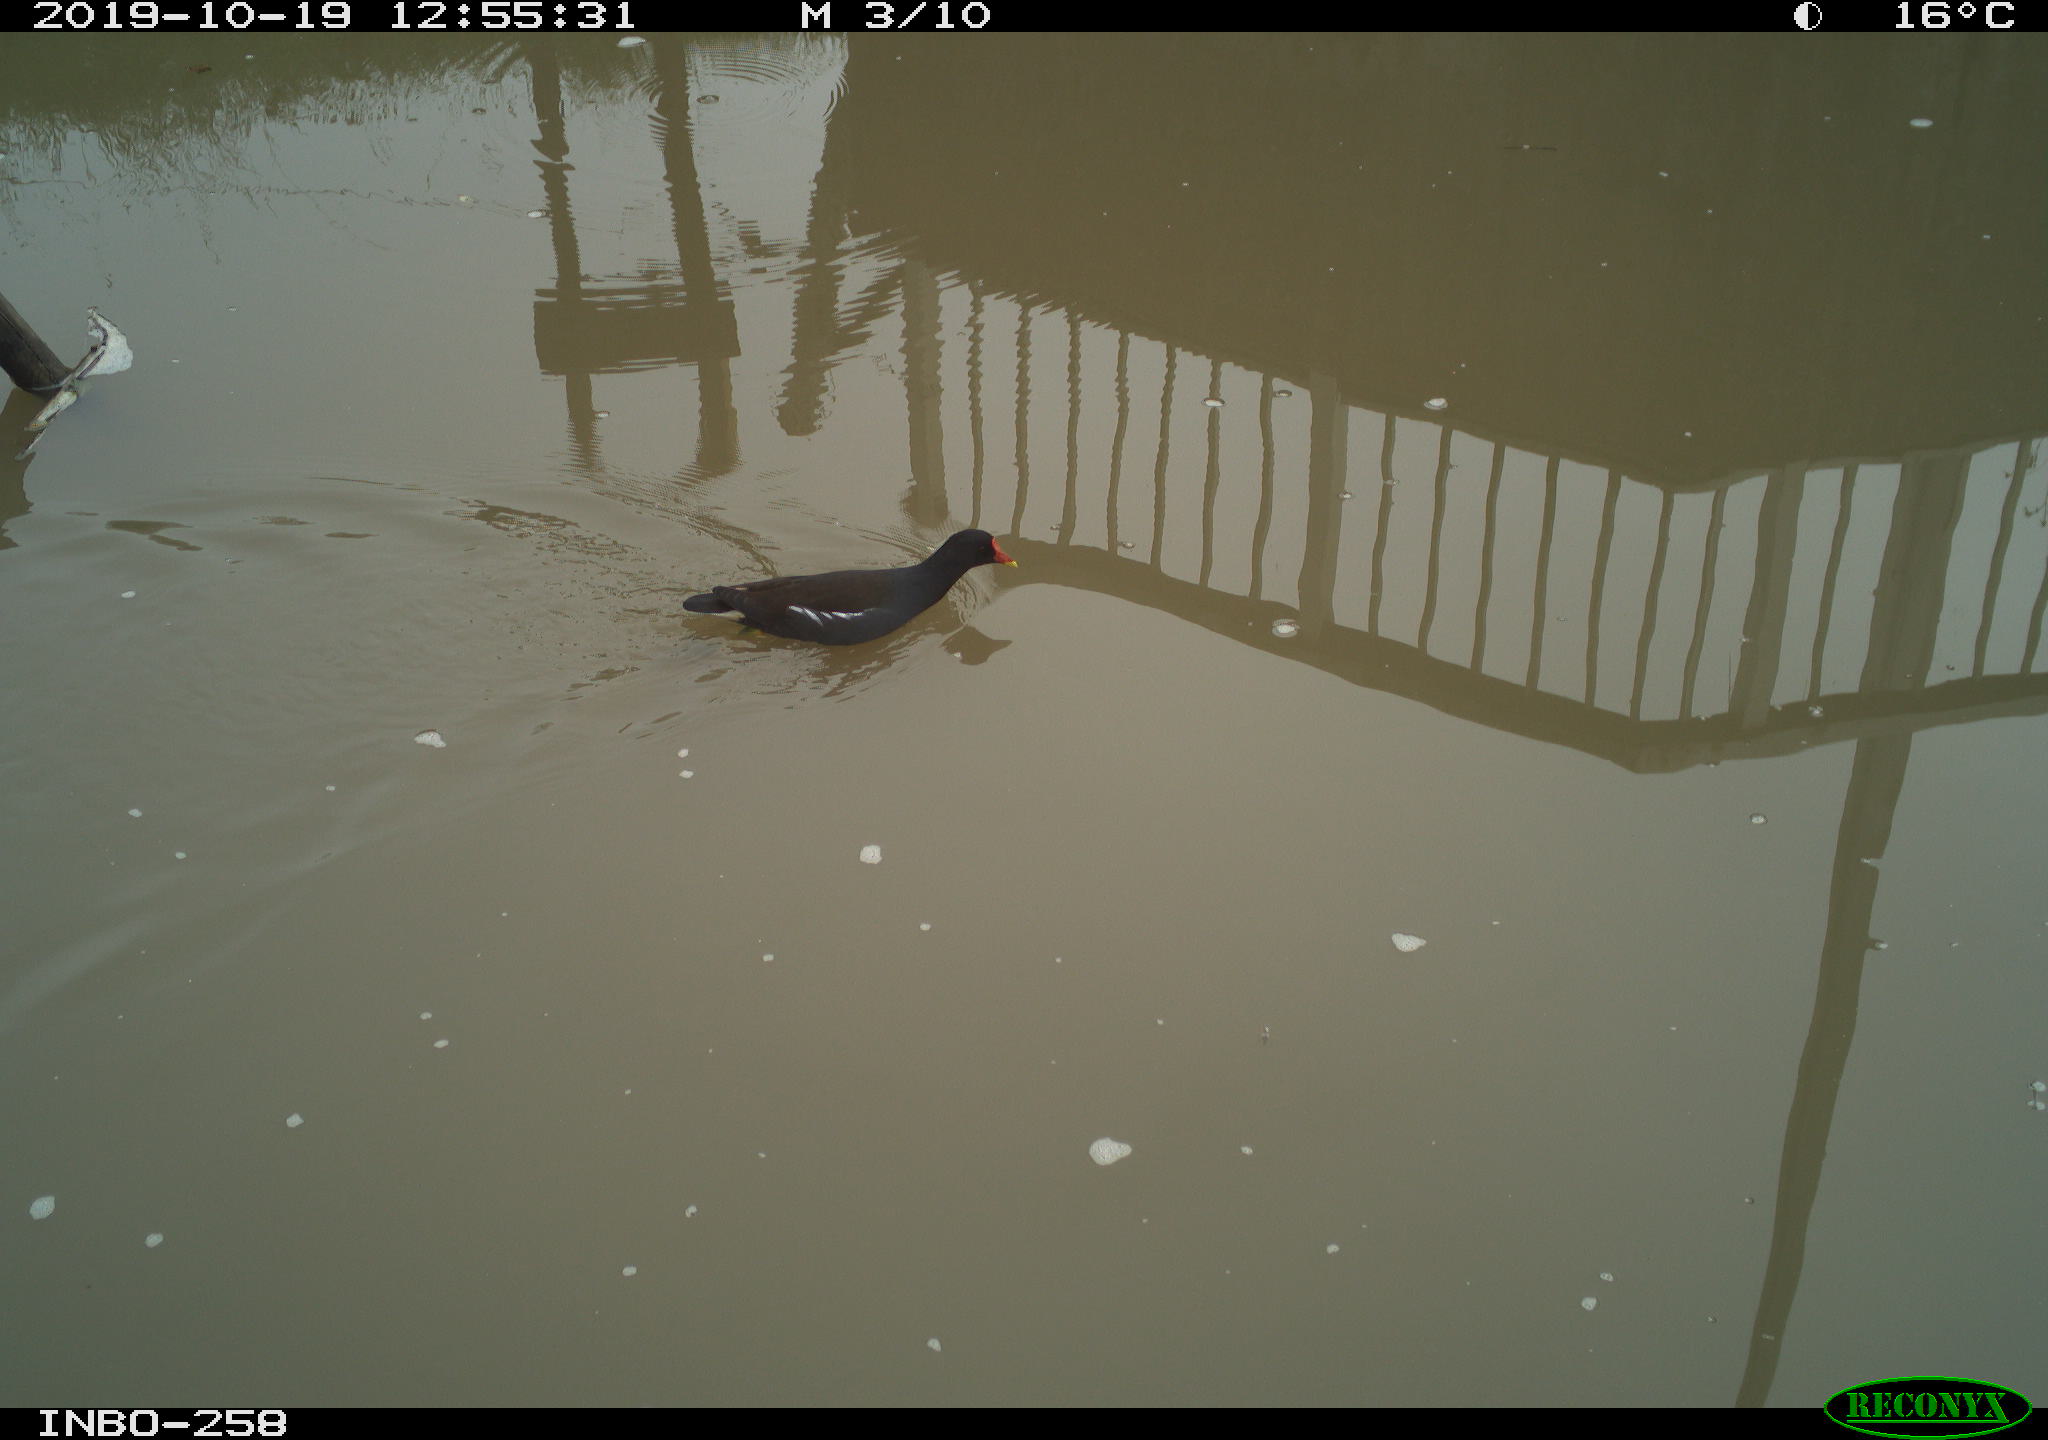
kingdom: Animalia
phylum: Chordata
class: Aves
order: Gruiformes
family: Rallidae
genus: Gallinula
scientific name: Gallinula chloropus
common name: Common moorhen
